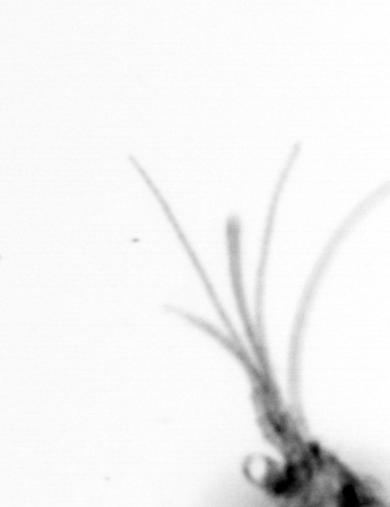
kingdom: Animalia
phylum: Arthropoda
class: Copepoda
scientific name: Copepoda
